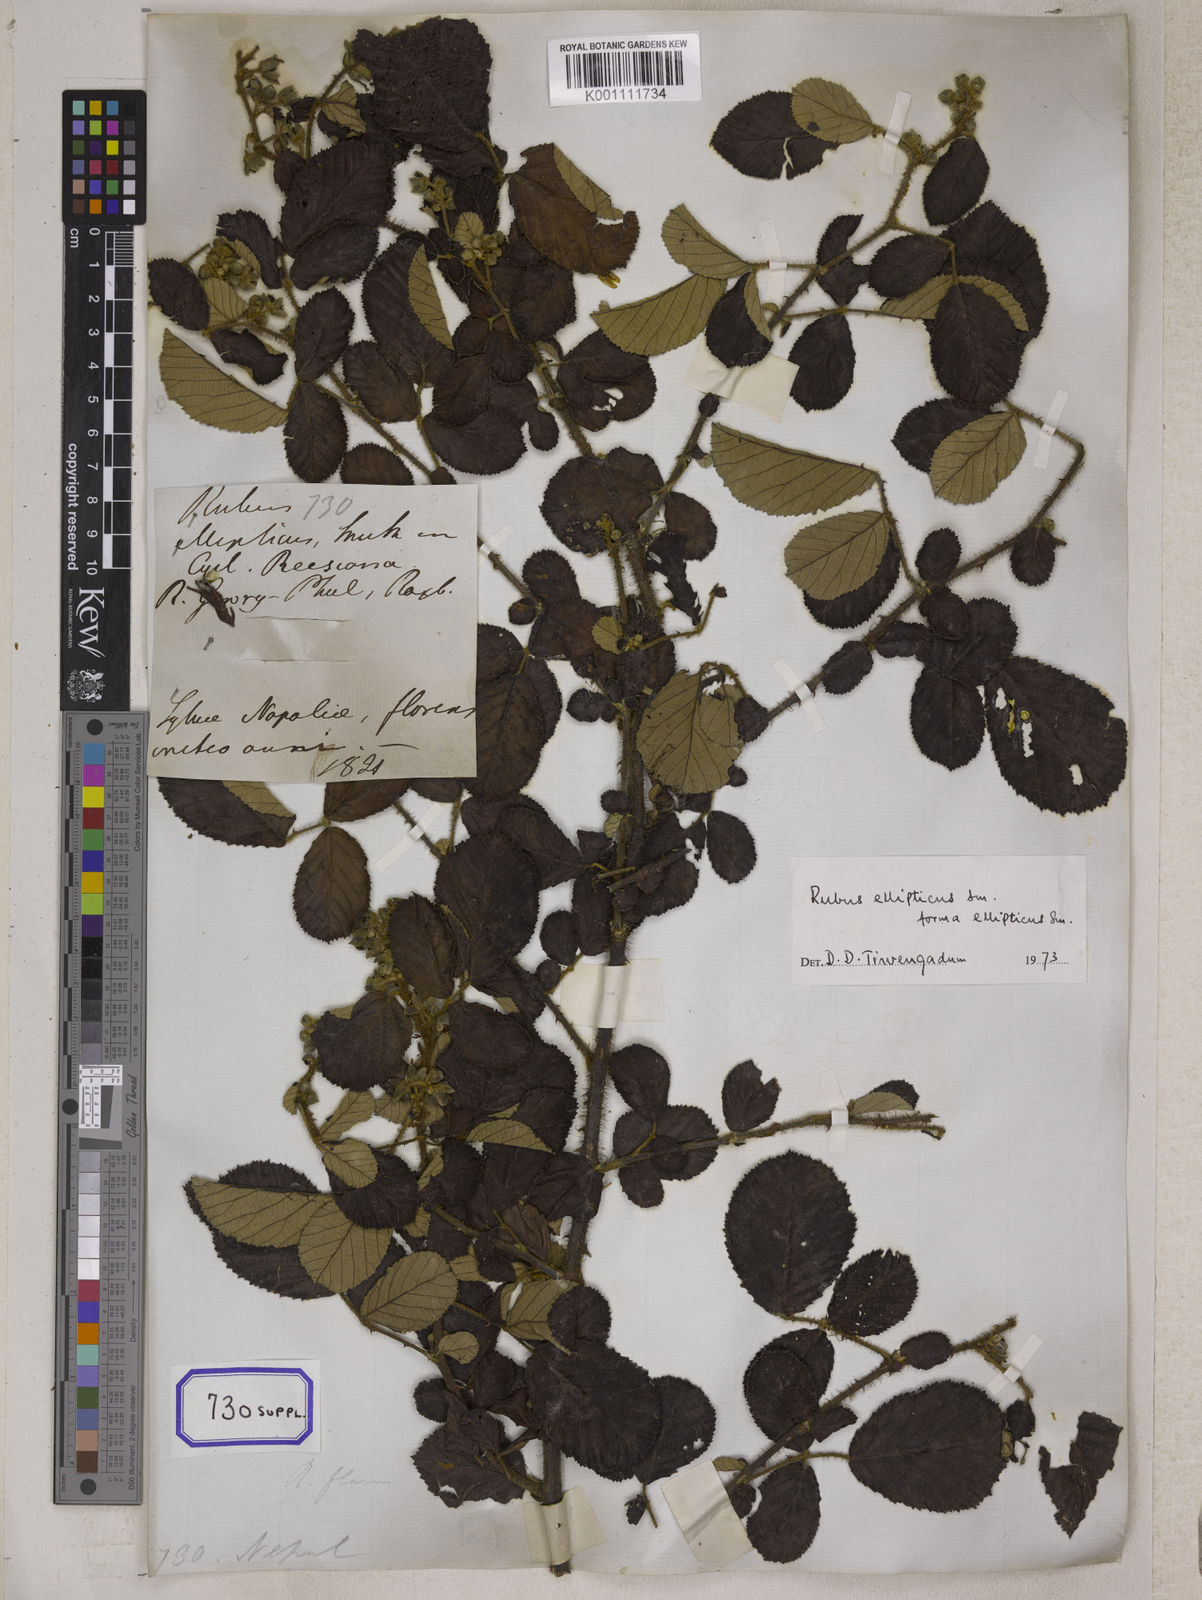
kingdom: Plantae
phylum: Tracheophyta
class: Magnoliopsida
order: Rosales
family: Rosaceae
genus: Rubus
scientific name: Rubus
